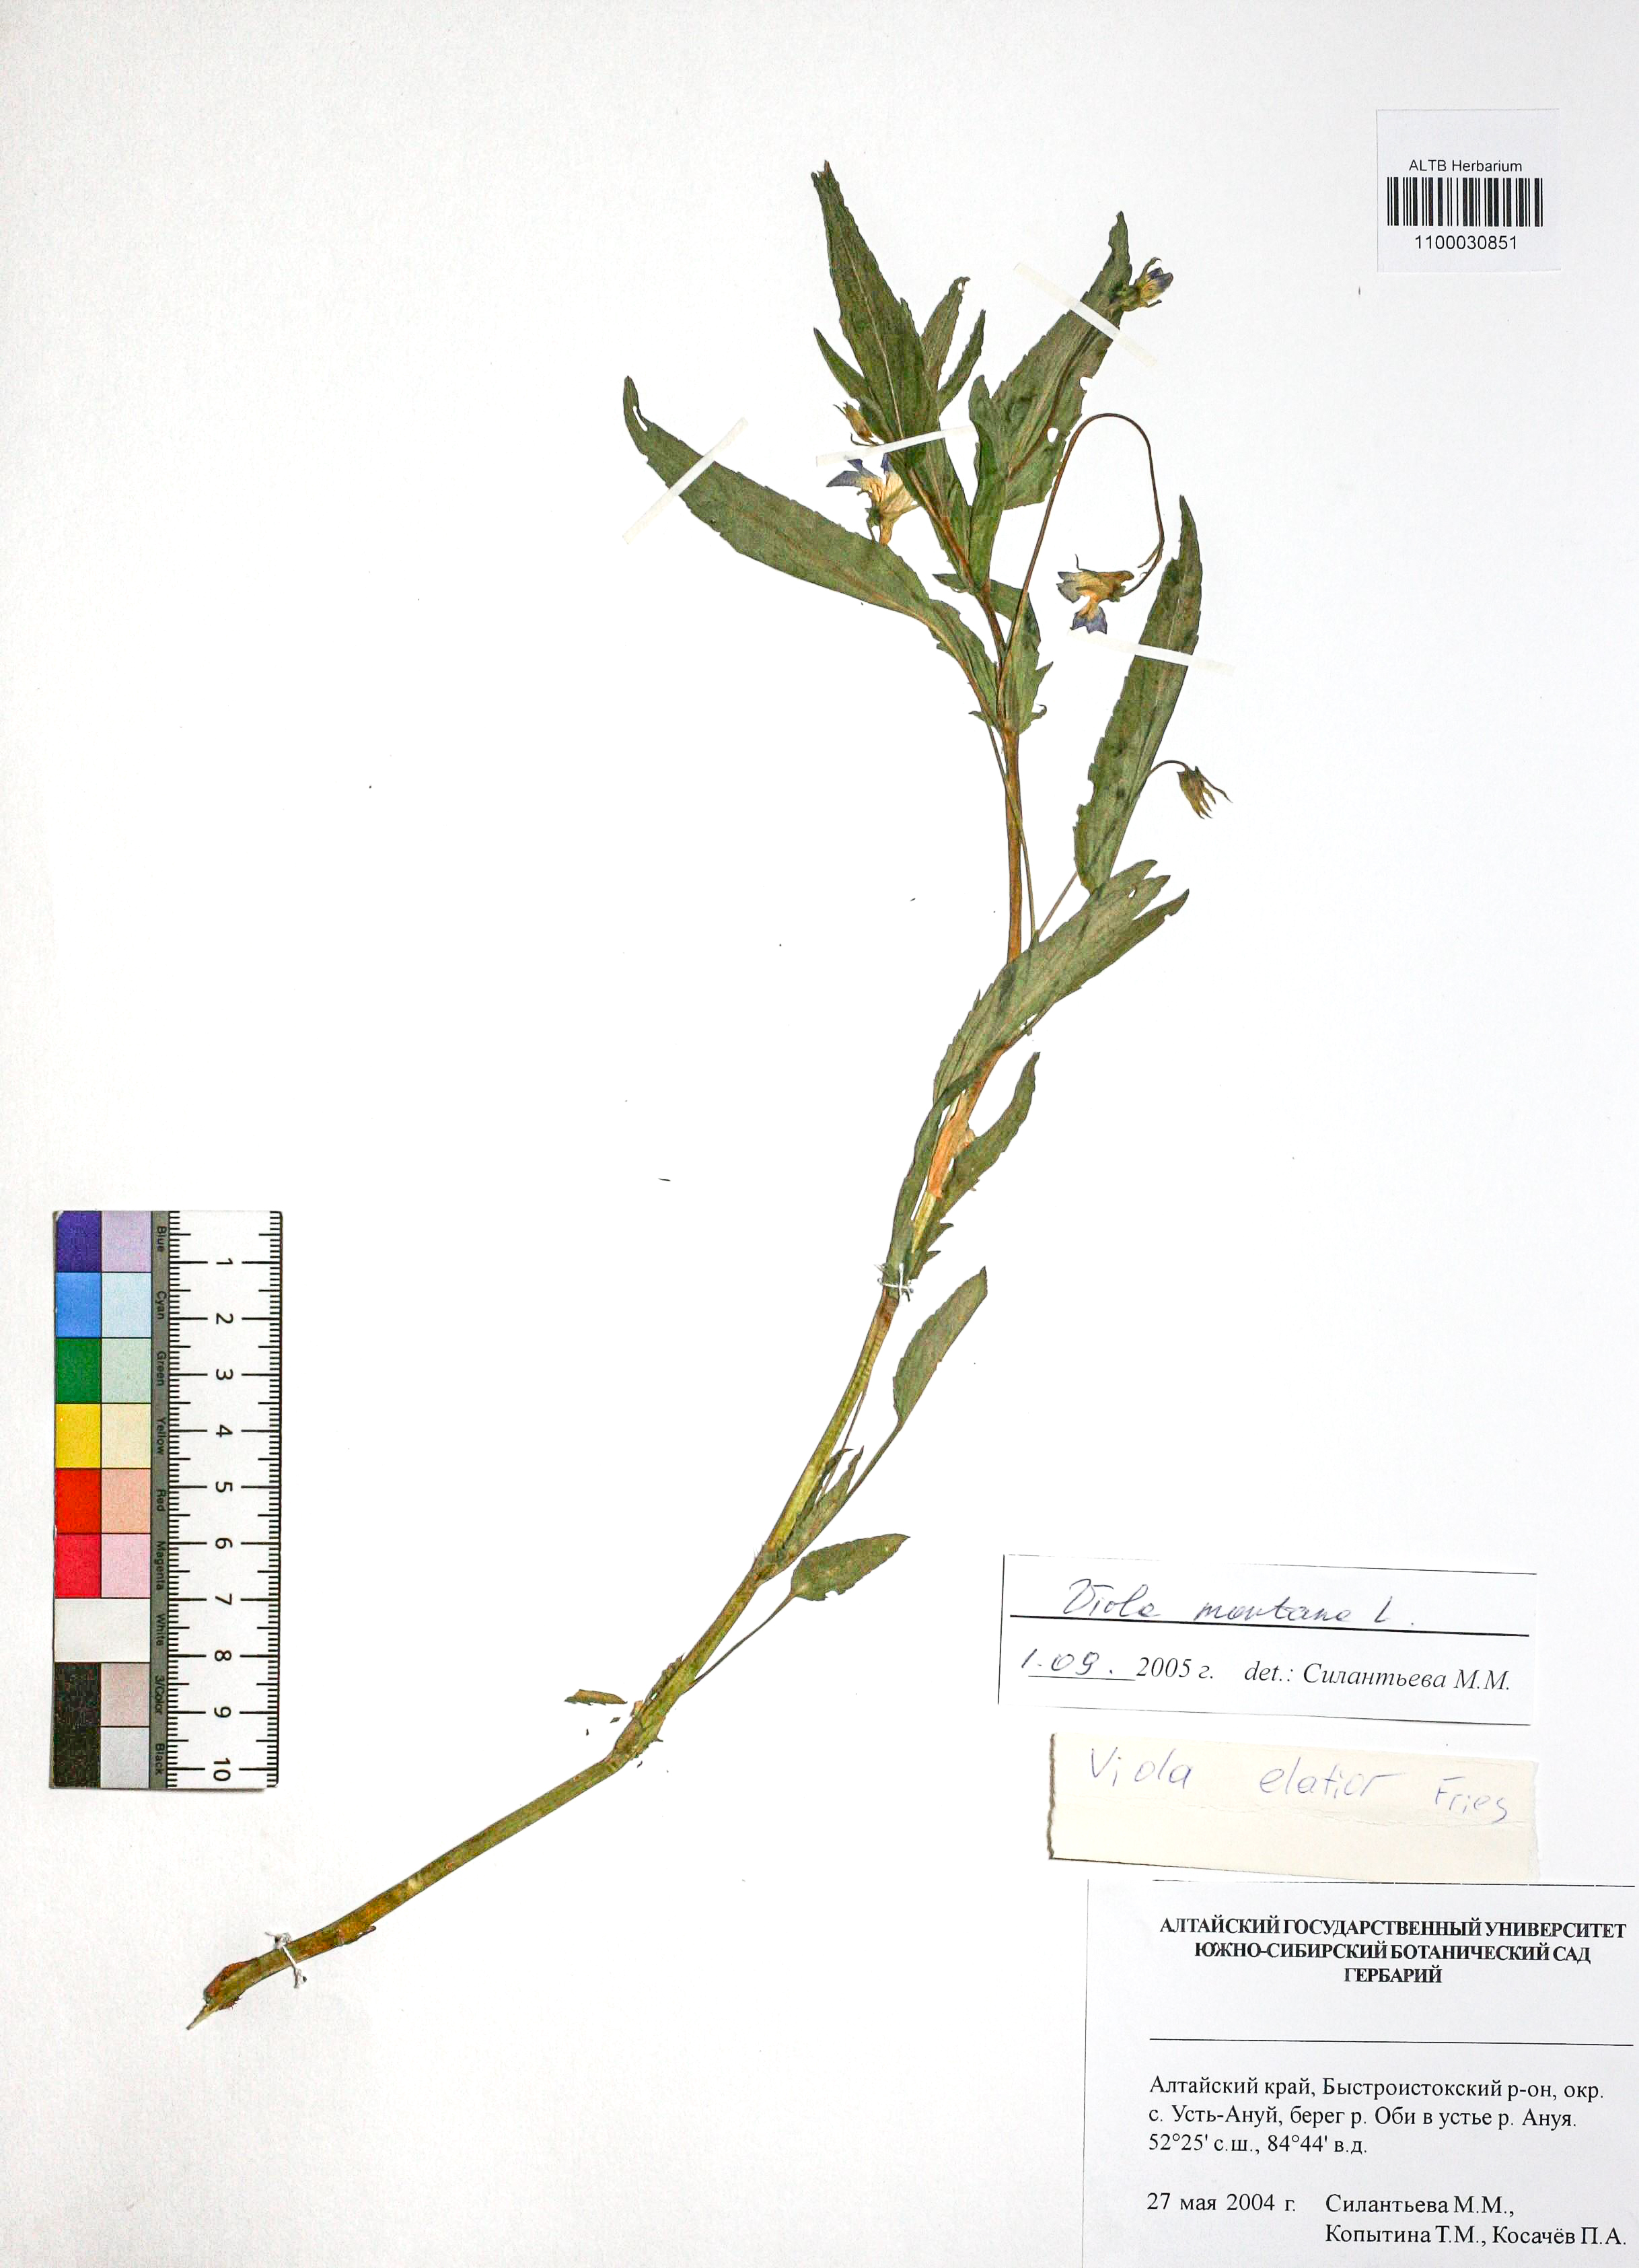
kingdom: Plantae
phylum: Tracheophyta
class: Magnoliopsida
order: Malpighiales
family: Violaceae
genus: Viola
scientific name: Viola ruppii
